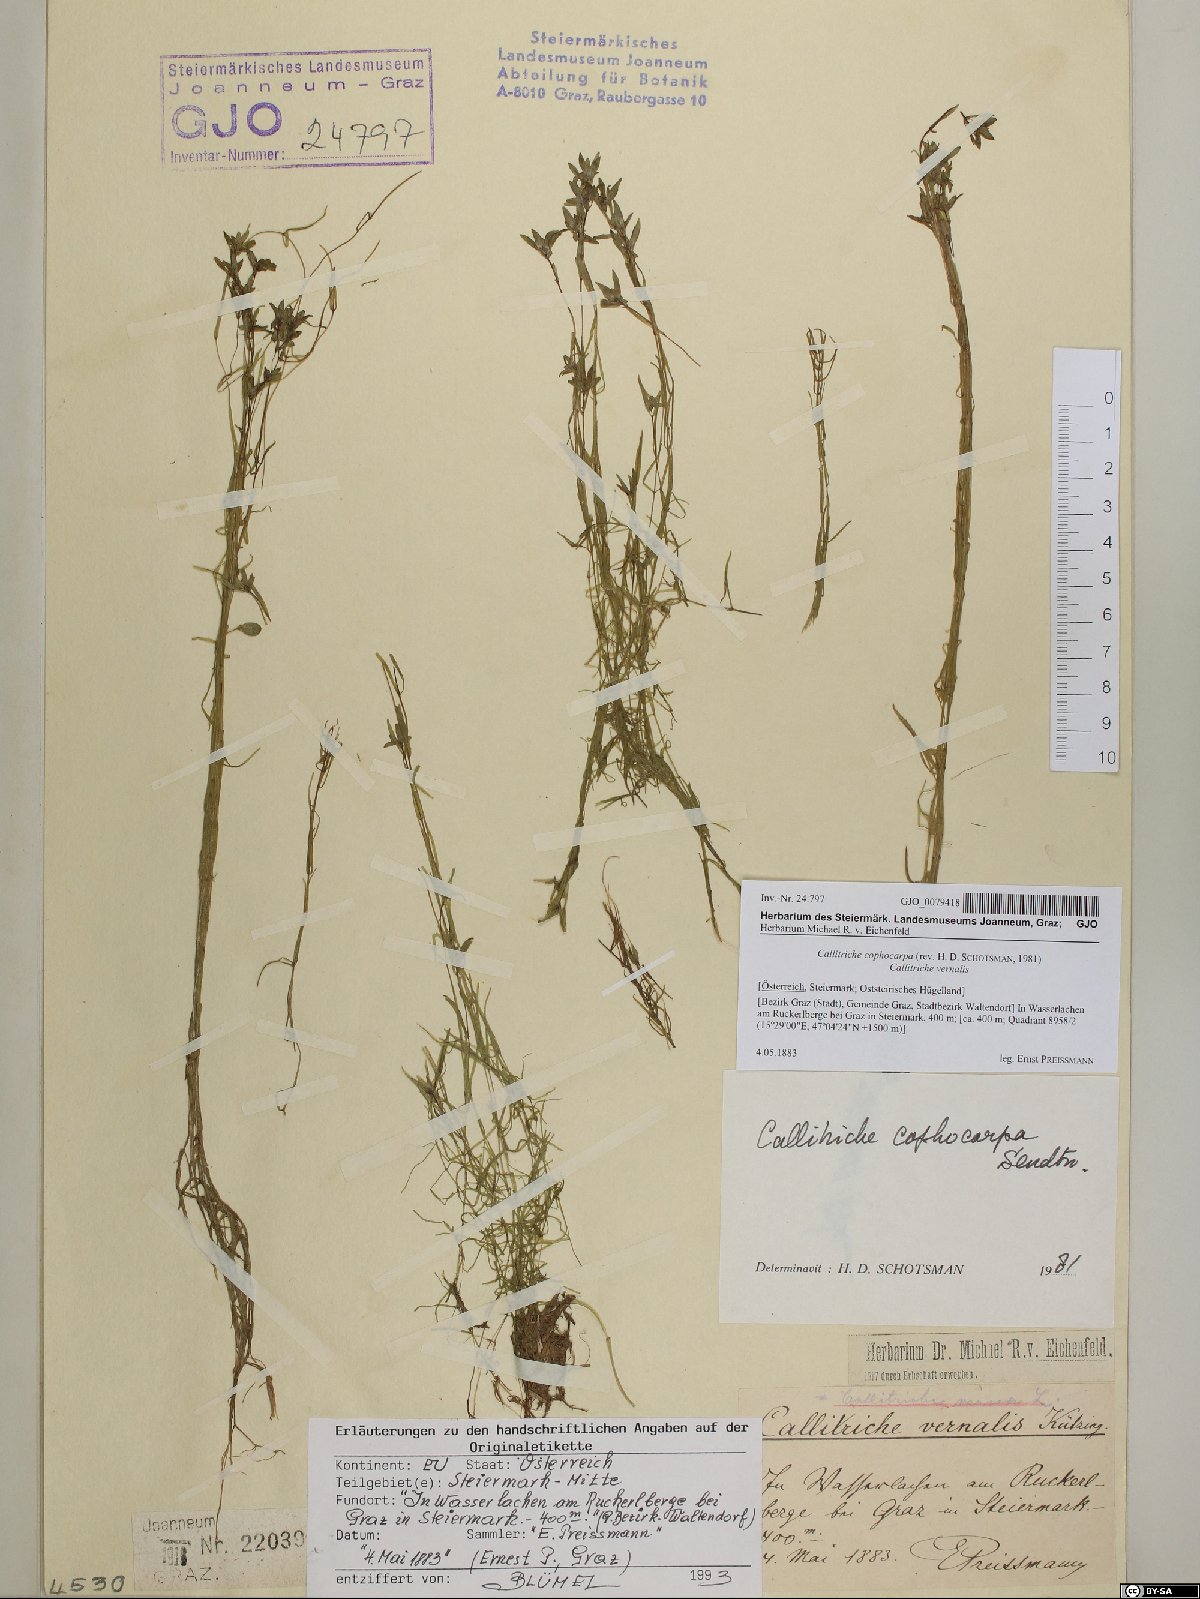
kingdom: Plantae
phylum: Tracheophyta
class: Magnoliopsida
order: Lamiales
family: Plantaginaceae
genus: Callitriche
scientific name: Callitriche cophocarpa
